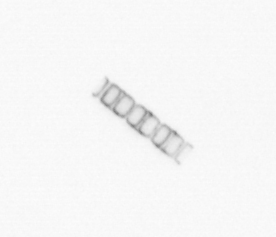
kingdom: Chromista
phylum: Ochrophyta
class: Bacillariophyceae
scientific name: Bacillariophyceae
